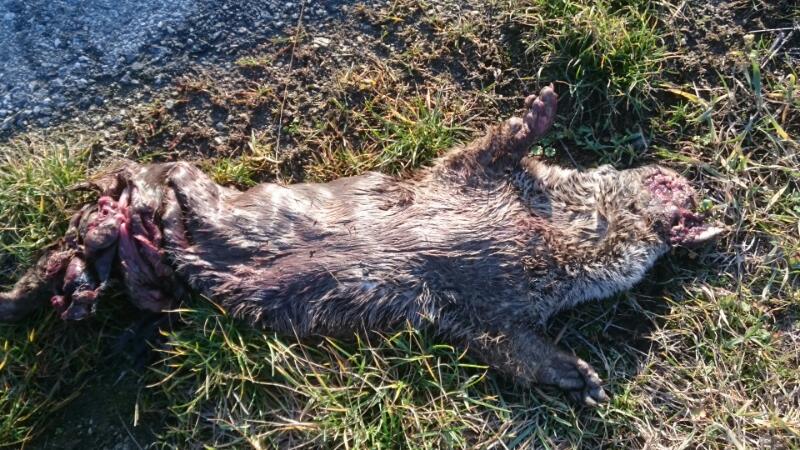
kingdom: Animalia
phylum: Chordata
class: Mammalia
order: Carnivora
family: Mustelidae
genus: Lutra
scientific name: Lutra lutra
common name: European otter
